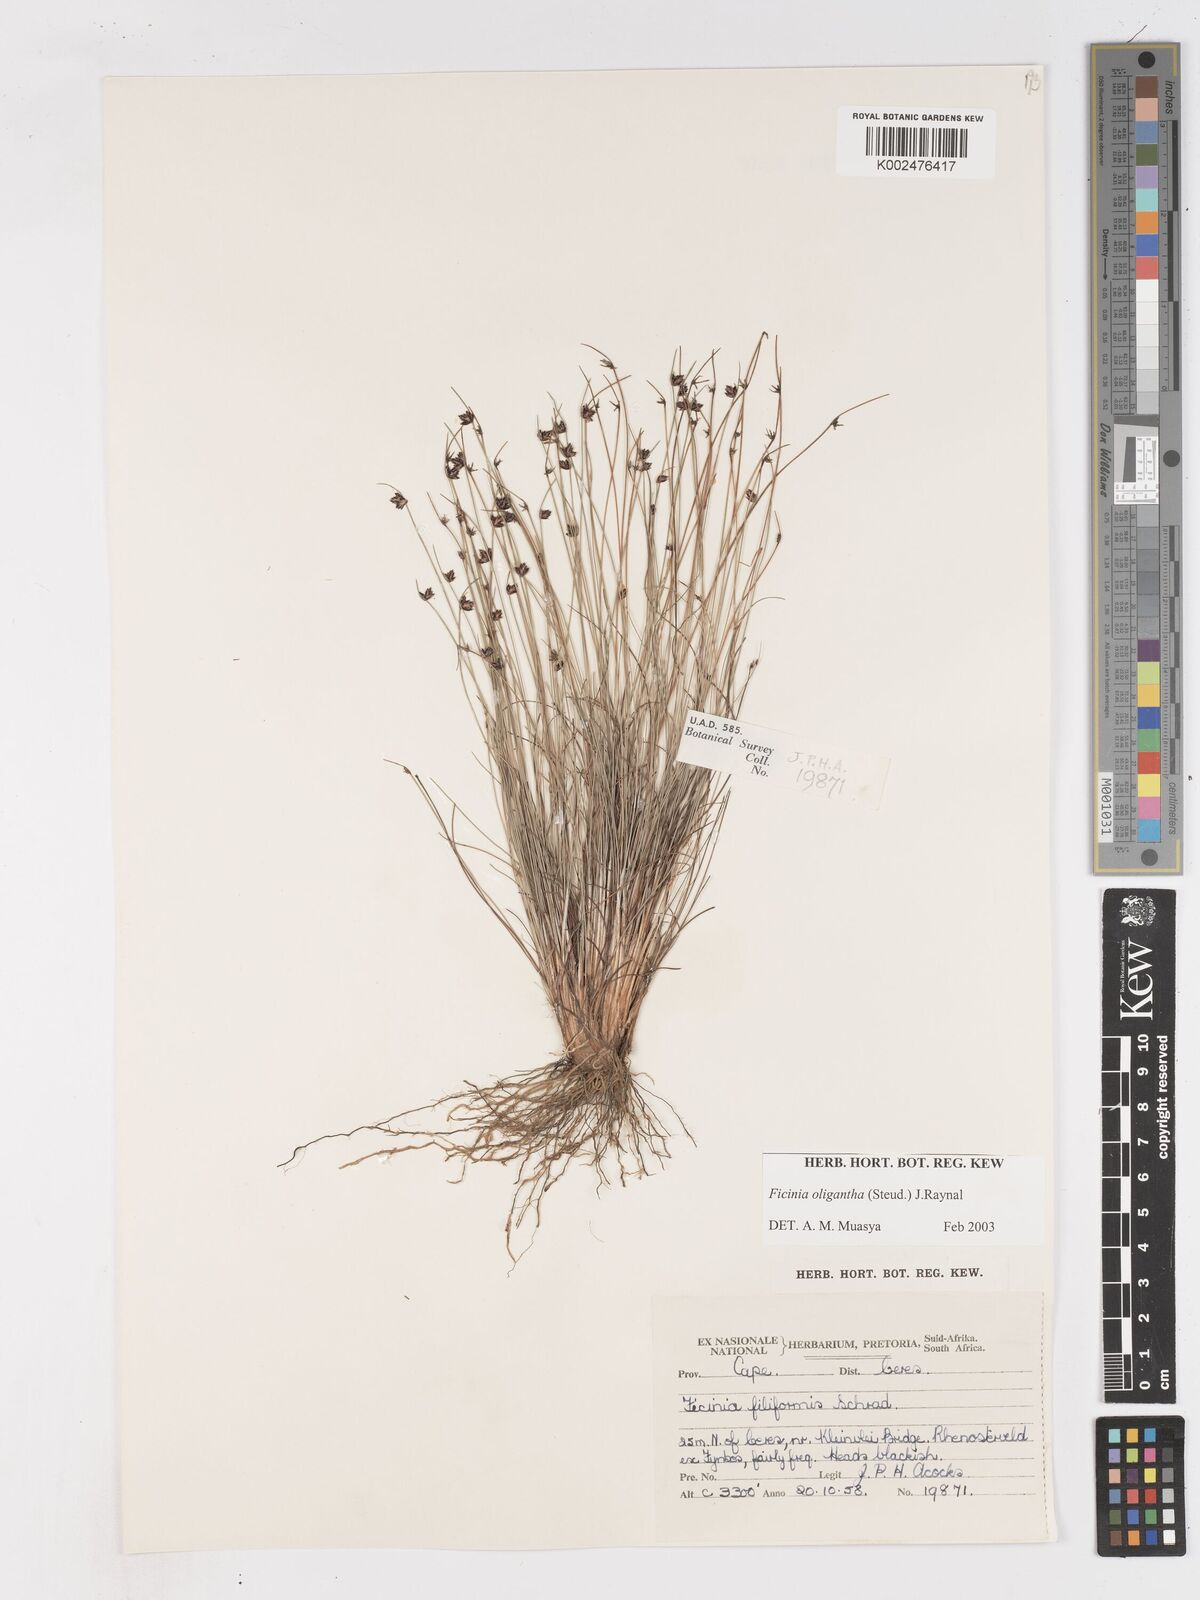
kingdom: Plantae
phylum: Tracheophyta
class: Liliopsida
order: Poales
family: Cyperaceae
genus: Ficinia
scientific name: Ficinia
